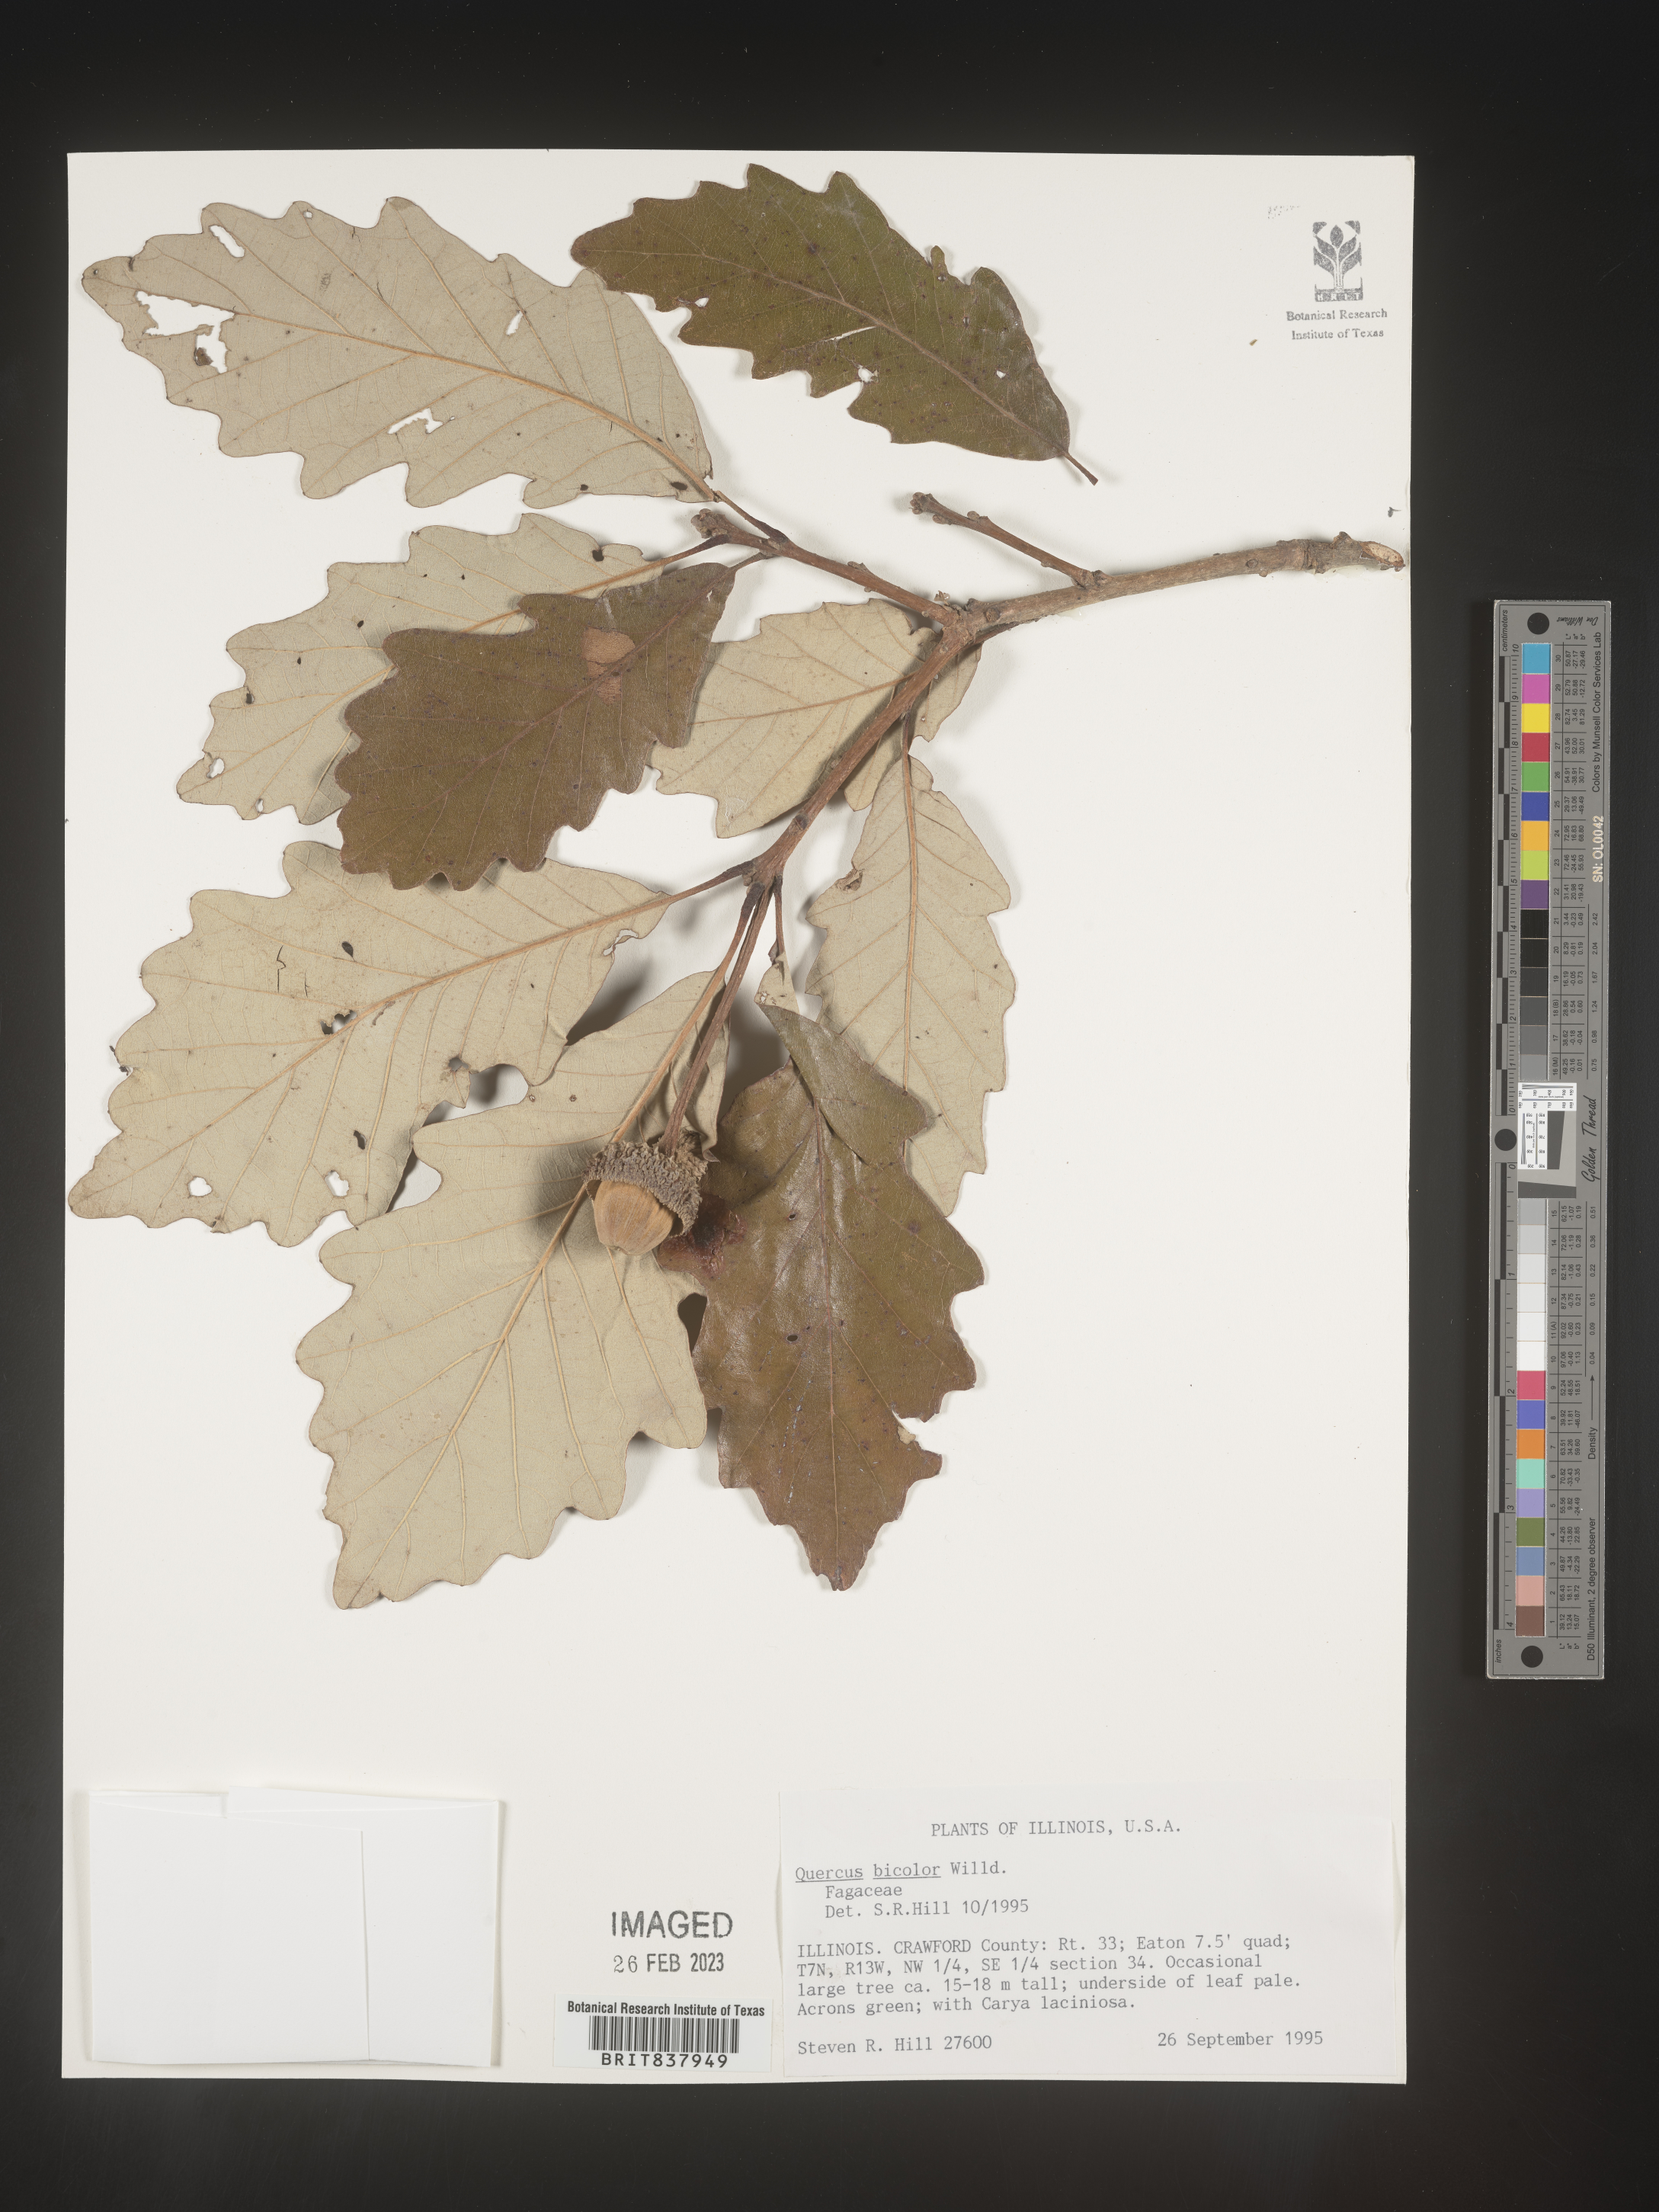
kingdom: Plantae
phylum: Tracheophyta
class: Magnoliopsida
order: Fagales
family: Fagaceae
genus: Quercus
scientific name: Quercus bicolor
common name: Swamp white oak
